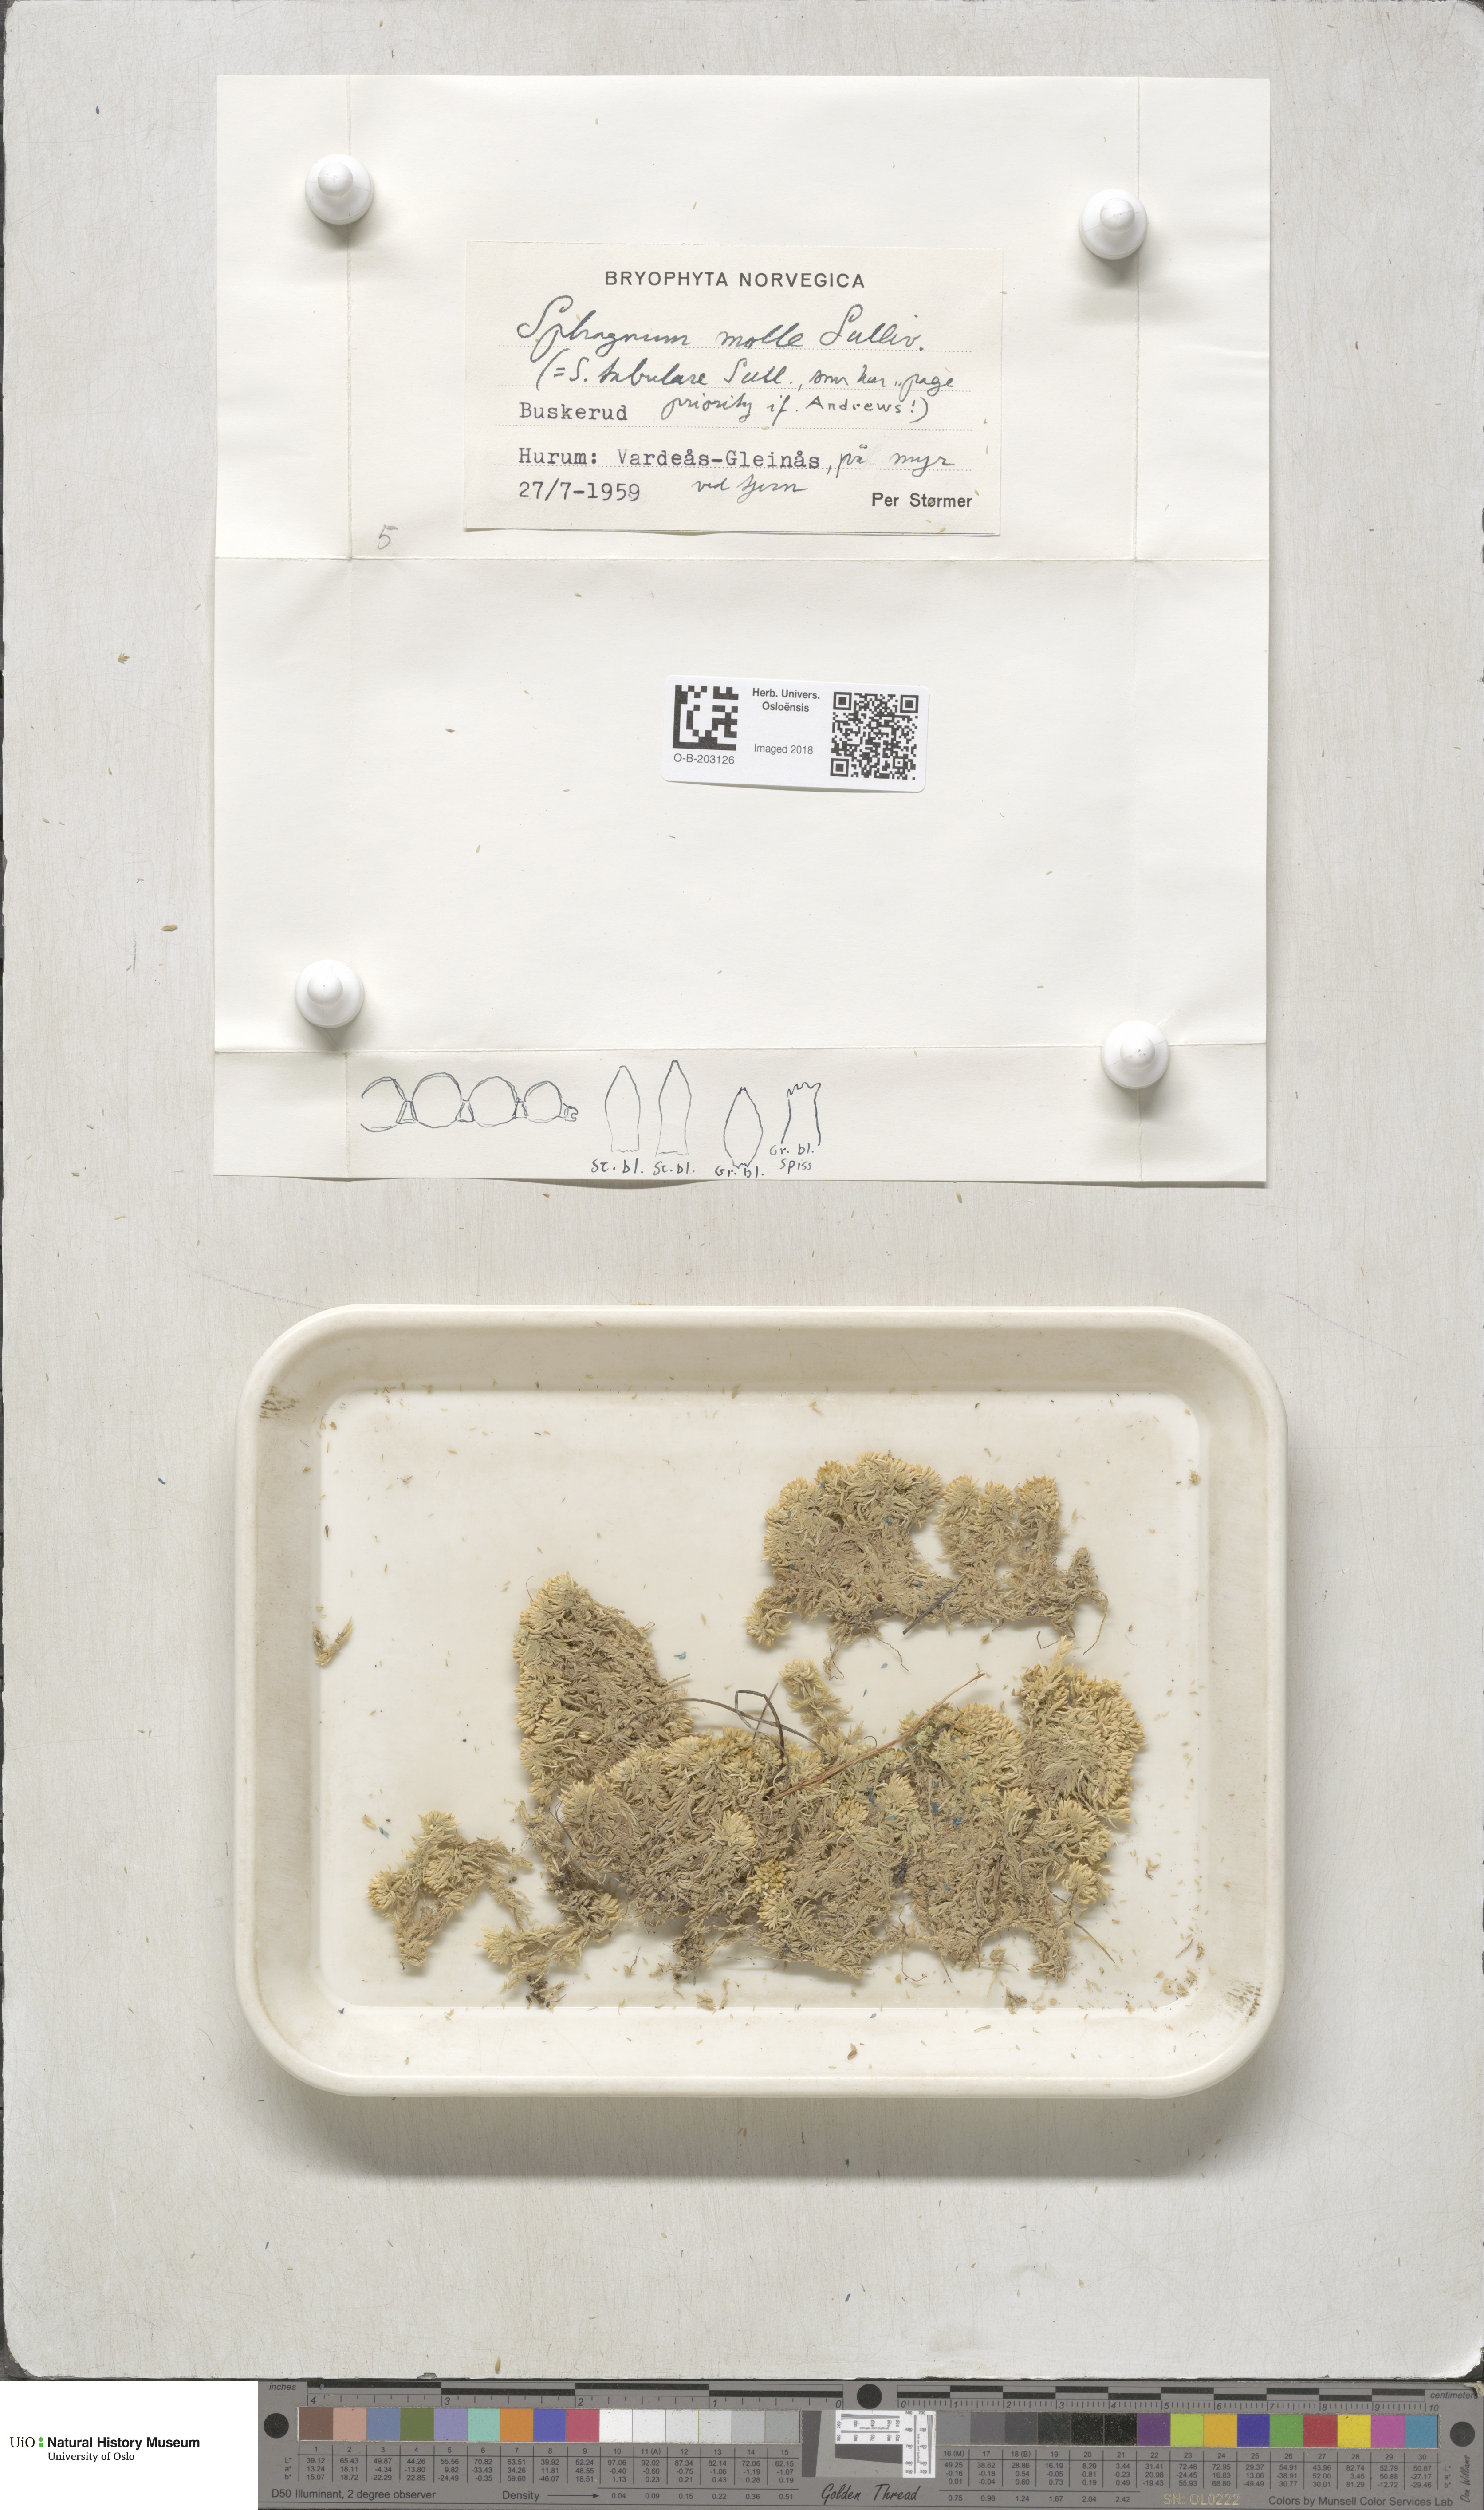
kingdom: Plantae
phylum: Bryophyta
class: Sphagnopsida
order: Sphagnales
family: Sphagnaceae
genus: Sphagnum
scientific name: Sphagnum molle
